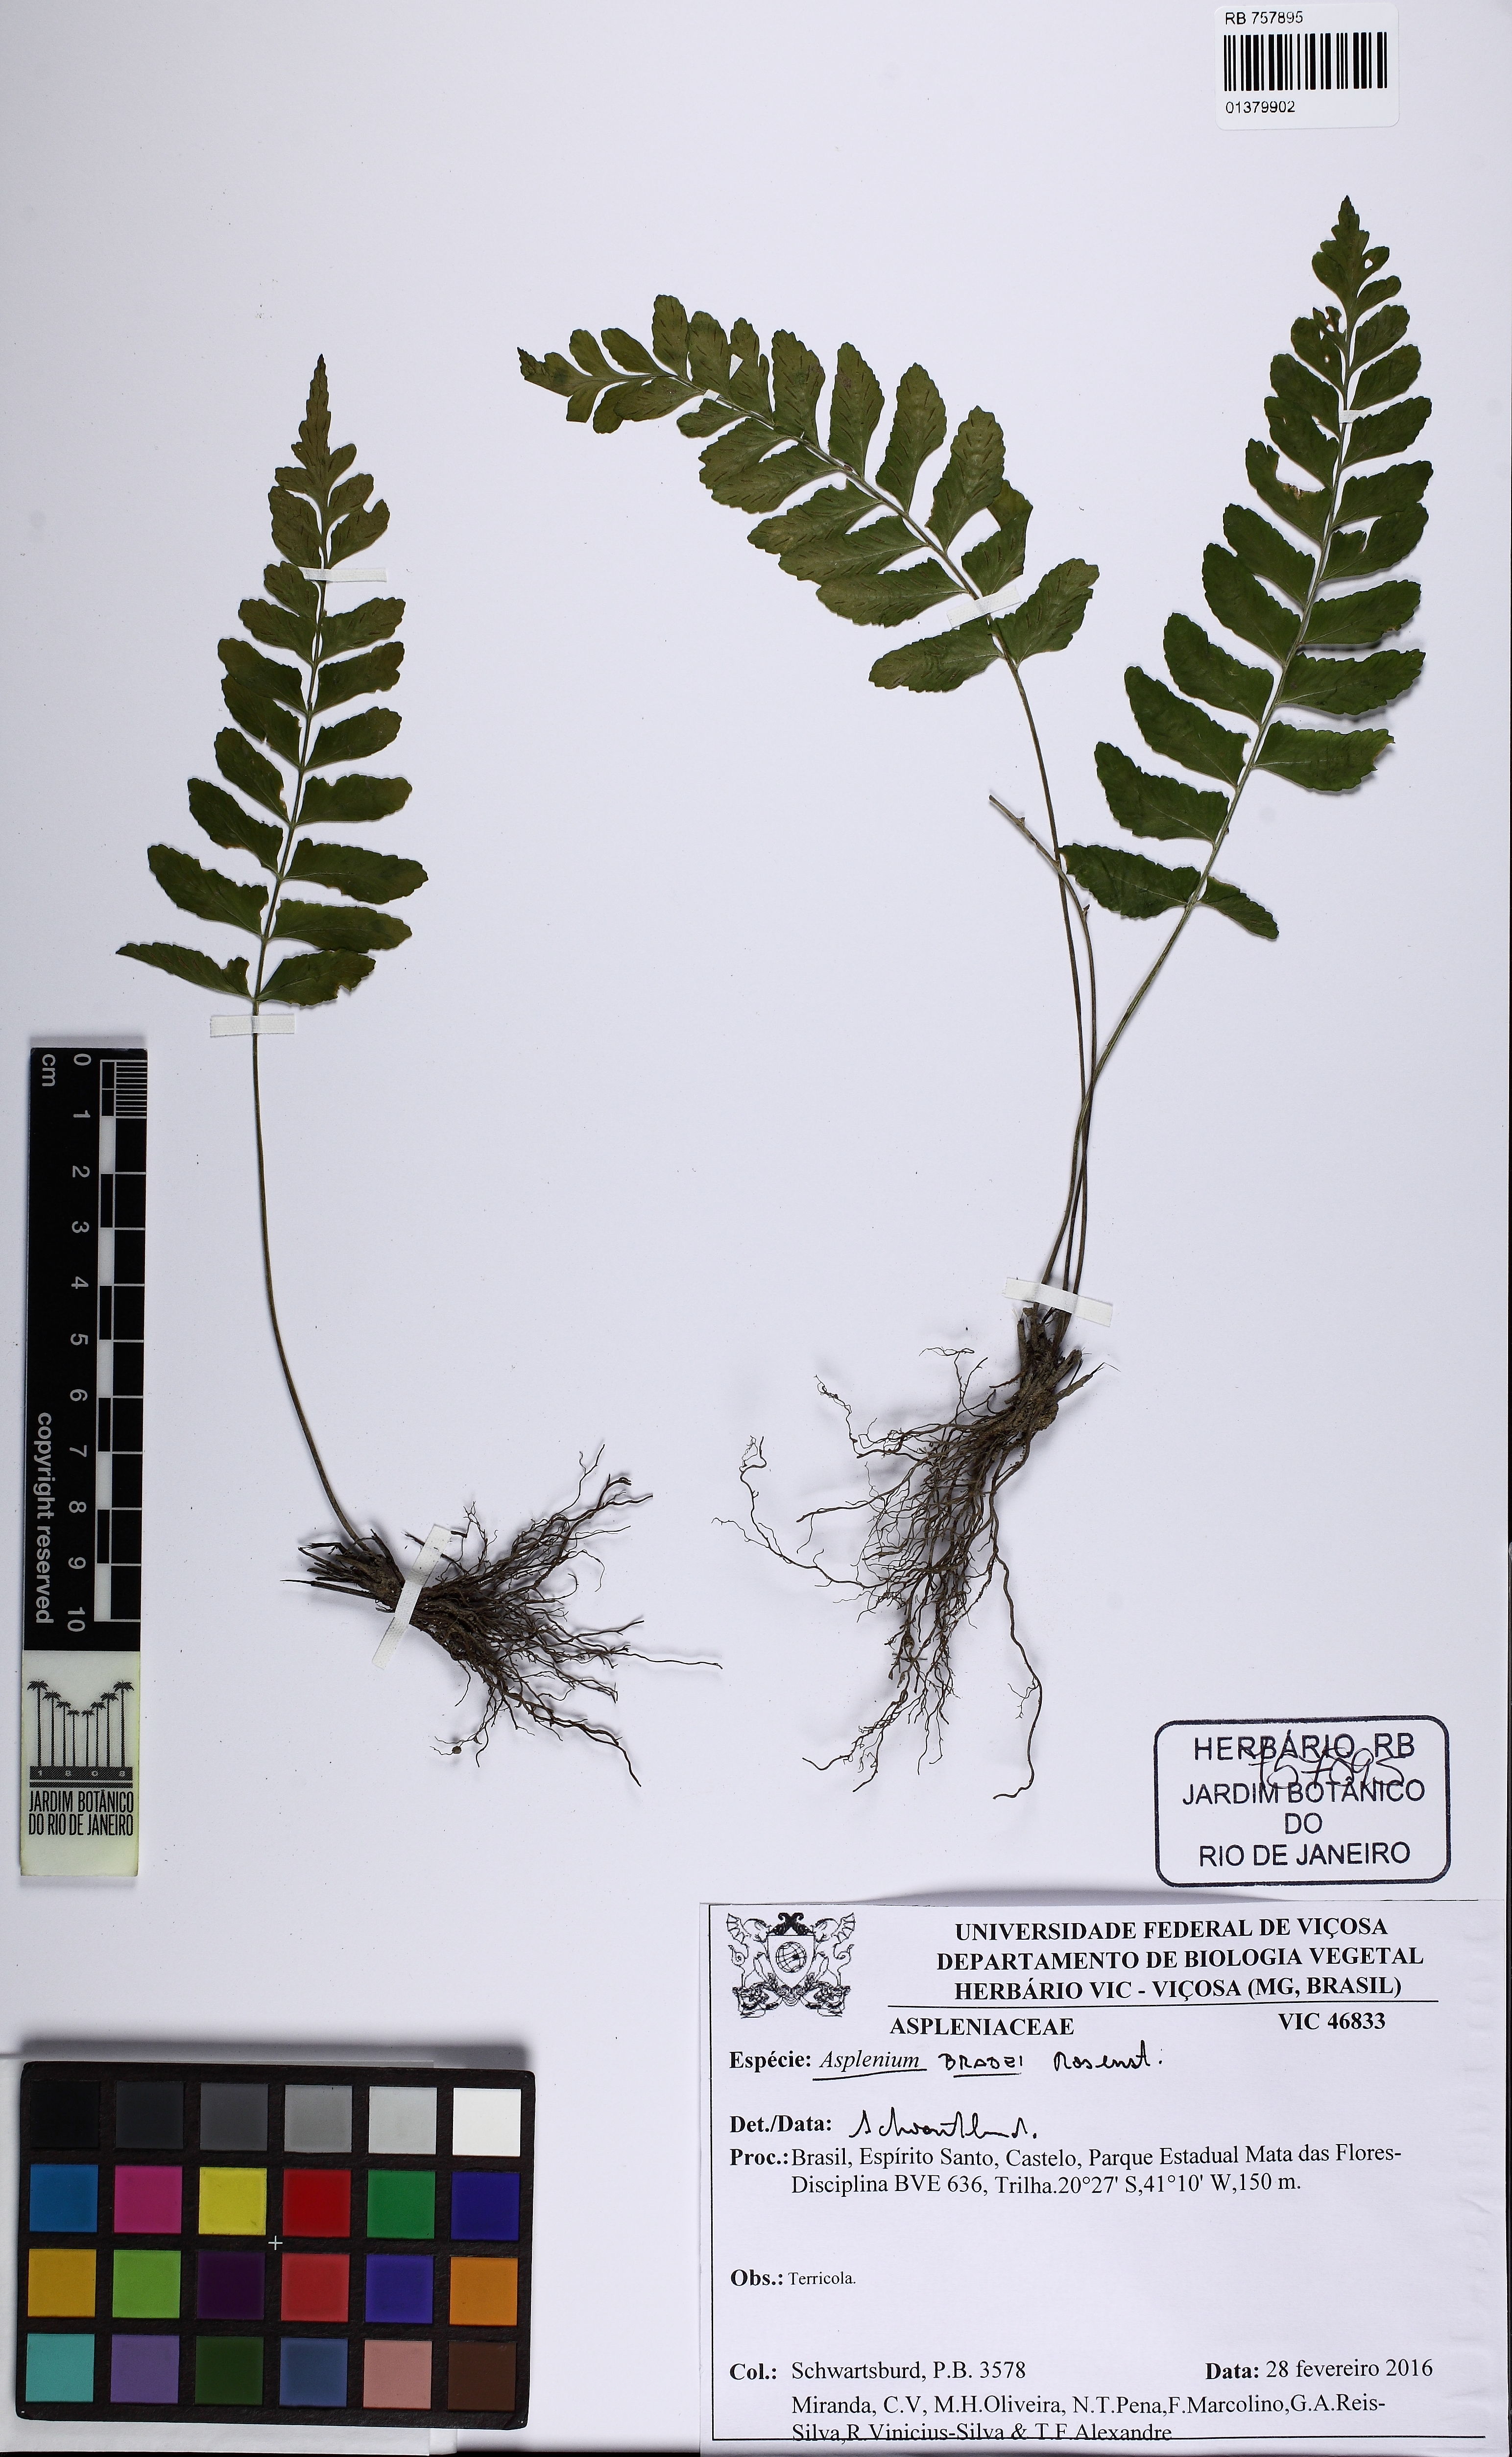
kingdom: Plantae
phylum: Tracheophyta
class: Polypodiopsida
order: Polypodiales
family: Aspleniaceae
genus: Asplenium
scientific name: Asplenium bradei
